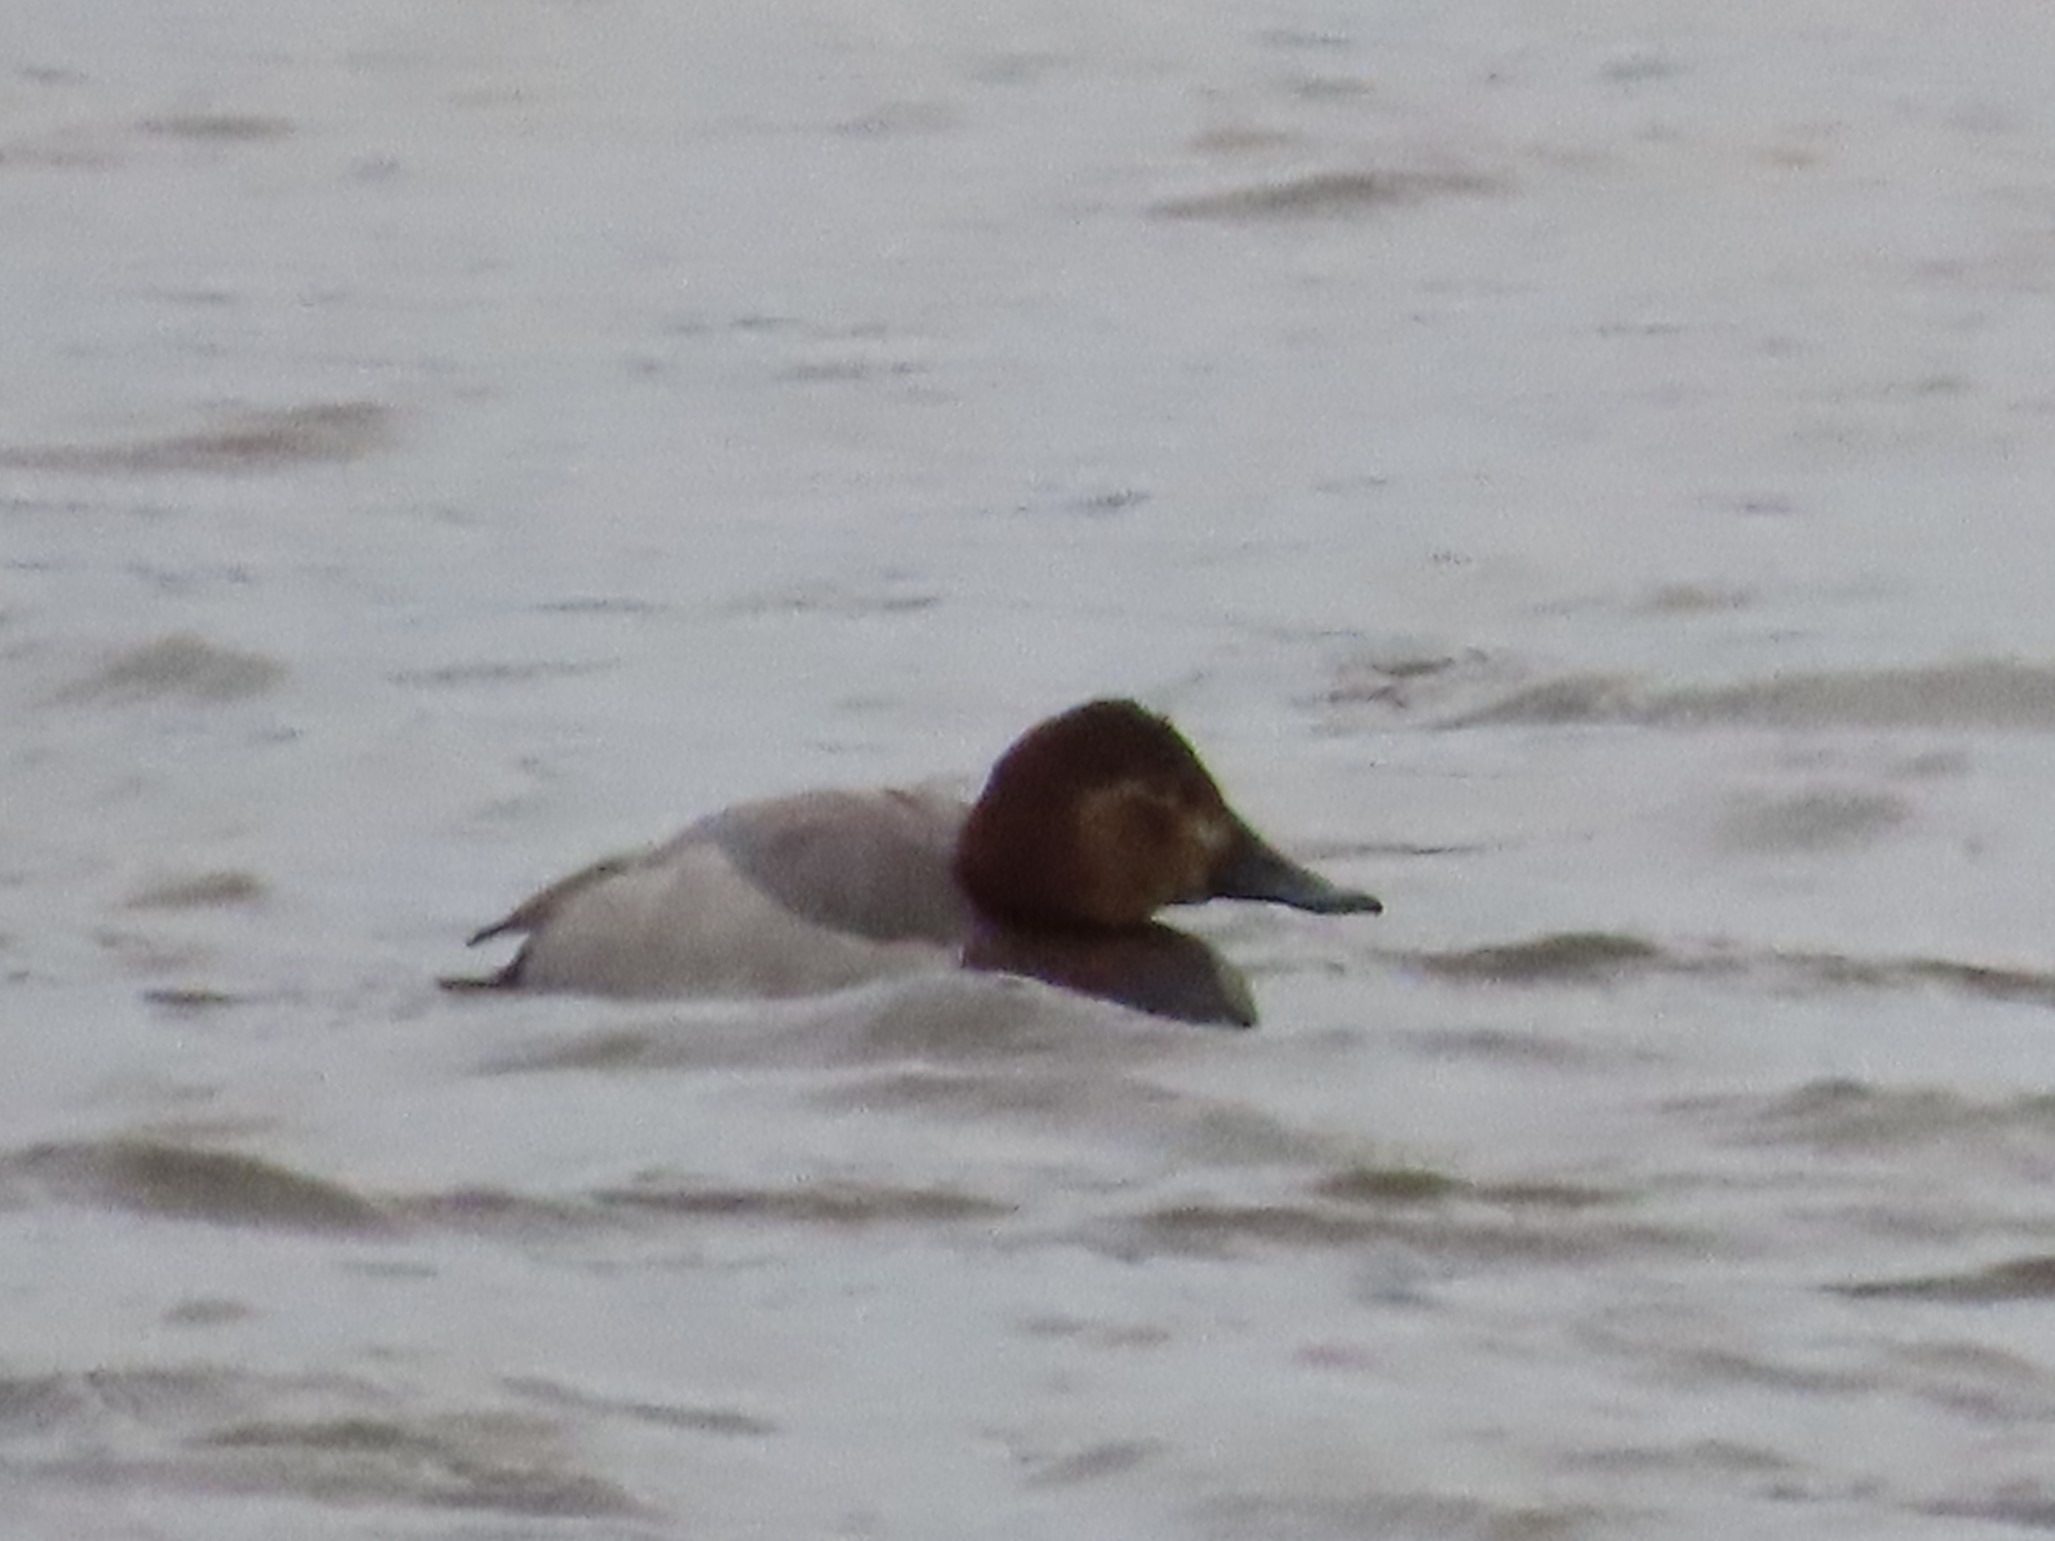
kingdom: Animalia
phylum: Chordata
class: Aves
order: Anseriformes
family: Anatidae
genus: Aythya
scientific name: Aythya ferina
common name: Taffeland
